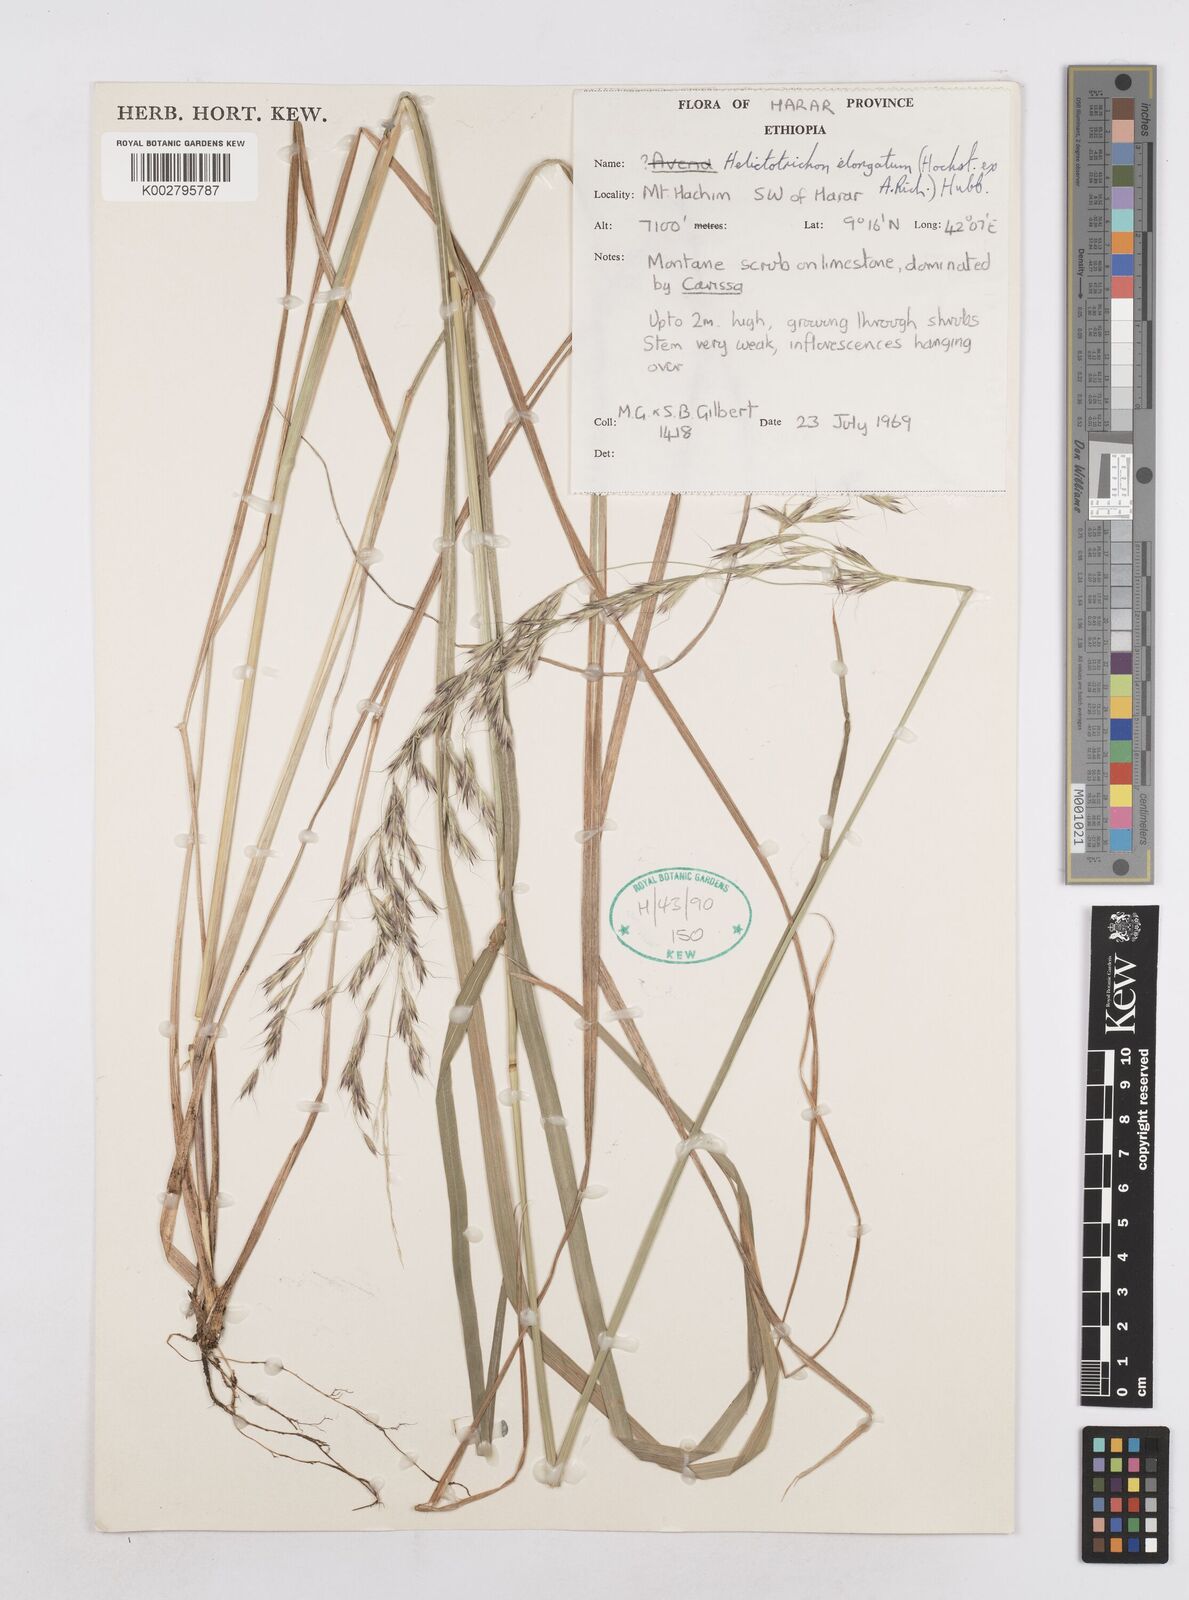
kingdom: Plantae
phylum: Tracheophyta
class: Liliopsida
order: Poales
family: Poaceae
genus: Trisetopsis
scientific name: Trisetopsis elongata
